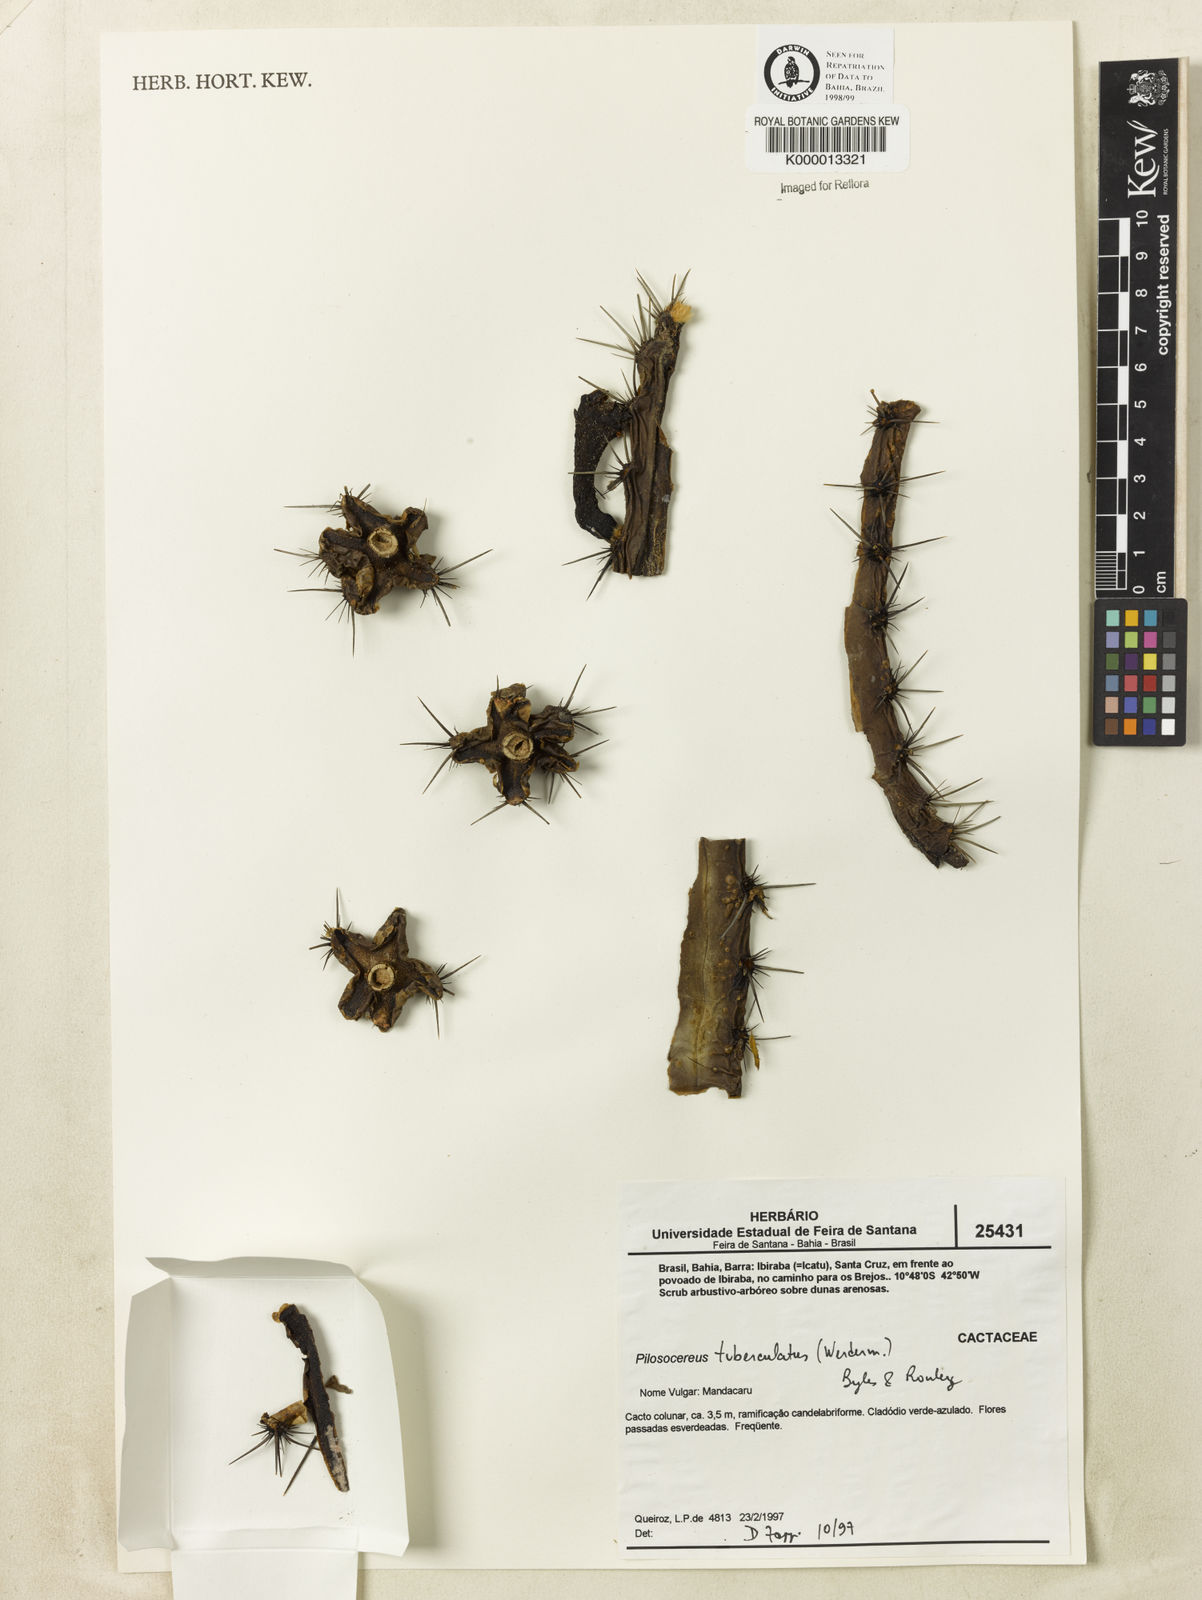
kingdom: Plantae
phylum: Tracheophyta
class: Magnoliopsida
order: Caryophyllales
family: Cactaceae
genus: Xiquexique
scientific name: Xiquexique tuberculatus
